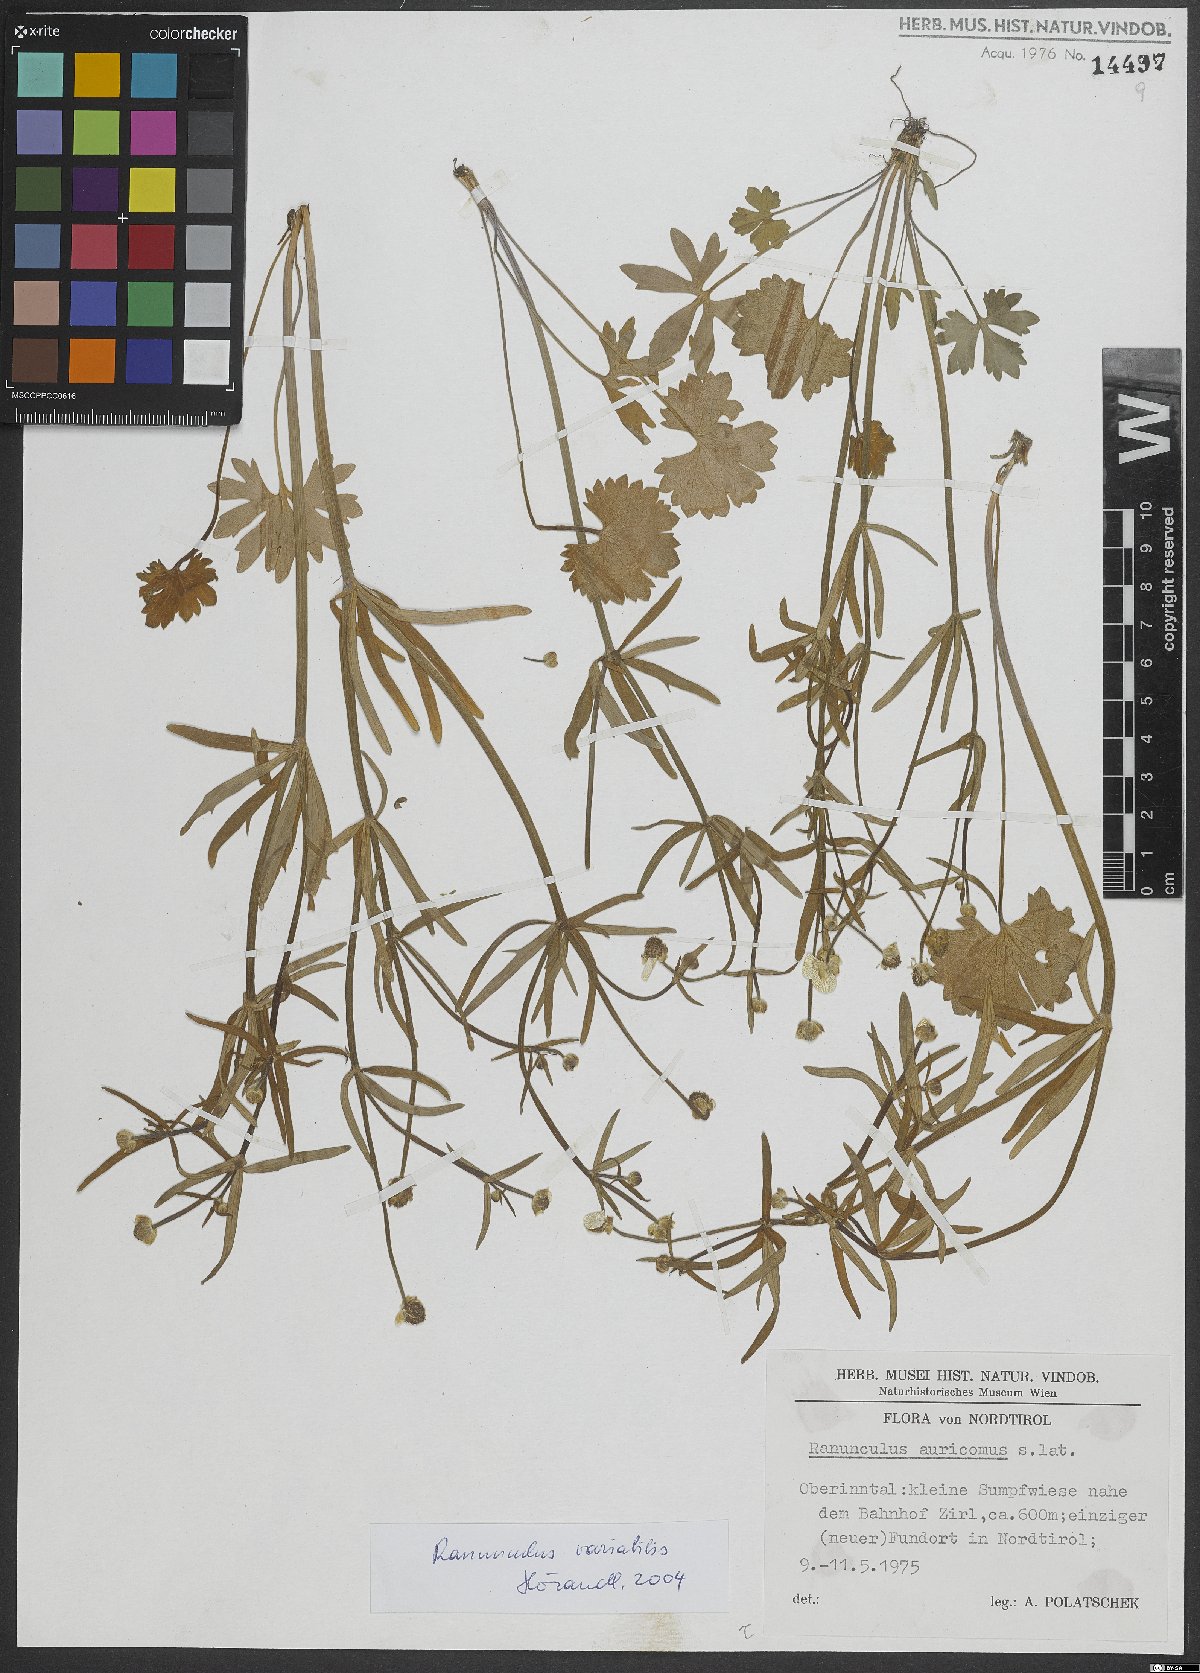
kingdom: Plantae
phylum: Tracheophyta
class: Magnoliopsida
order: Ranunculales
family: Ranunculaceae
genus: Ranunculus
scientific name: Ranunculus variabilis
